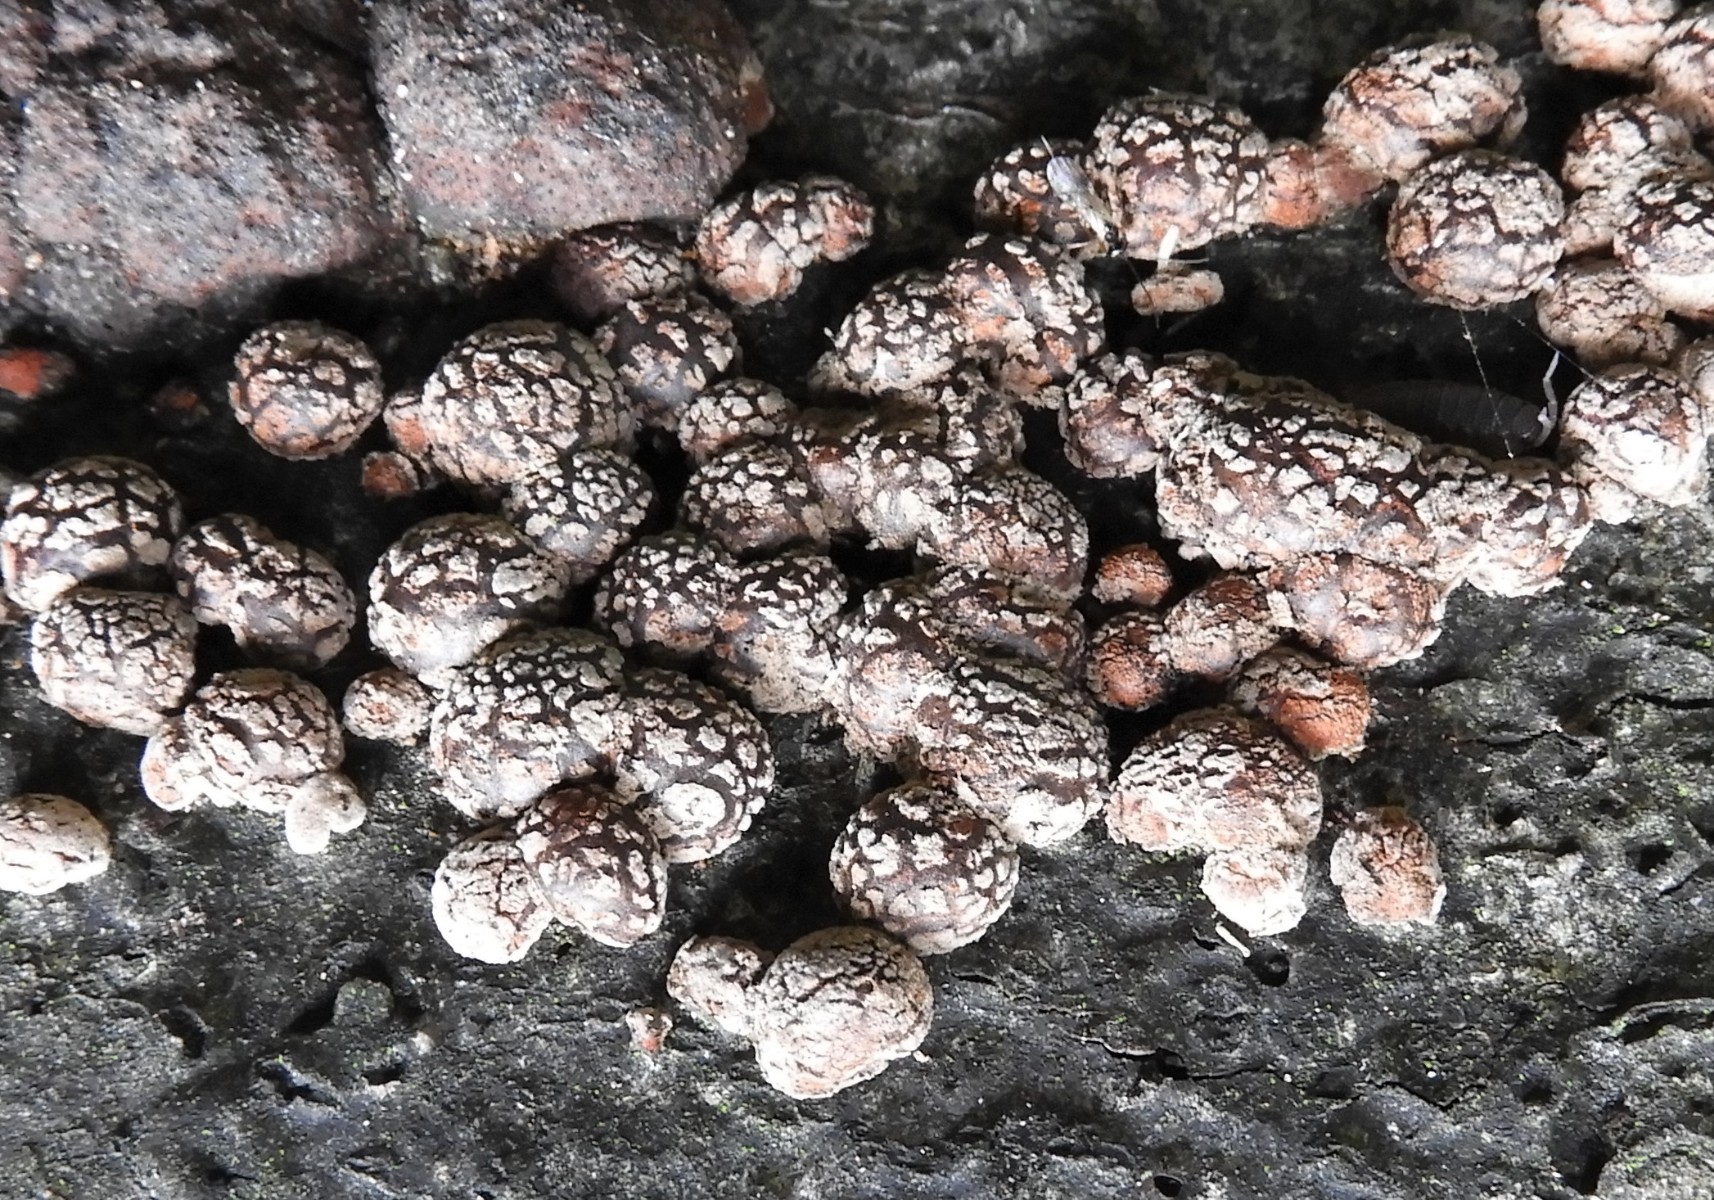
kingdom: Fungi
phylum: Ascomycota
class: Sordariomycetes
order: Xylariales
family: Hypoxylaceae
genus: Hypoxylon
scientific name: Hypoxylon fragiforme
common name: kuljordbær
